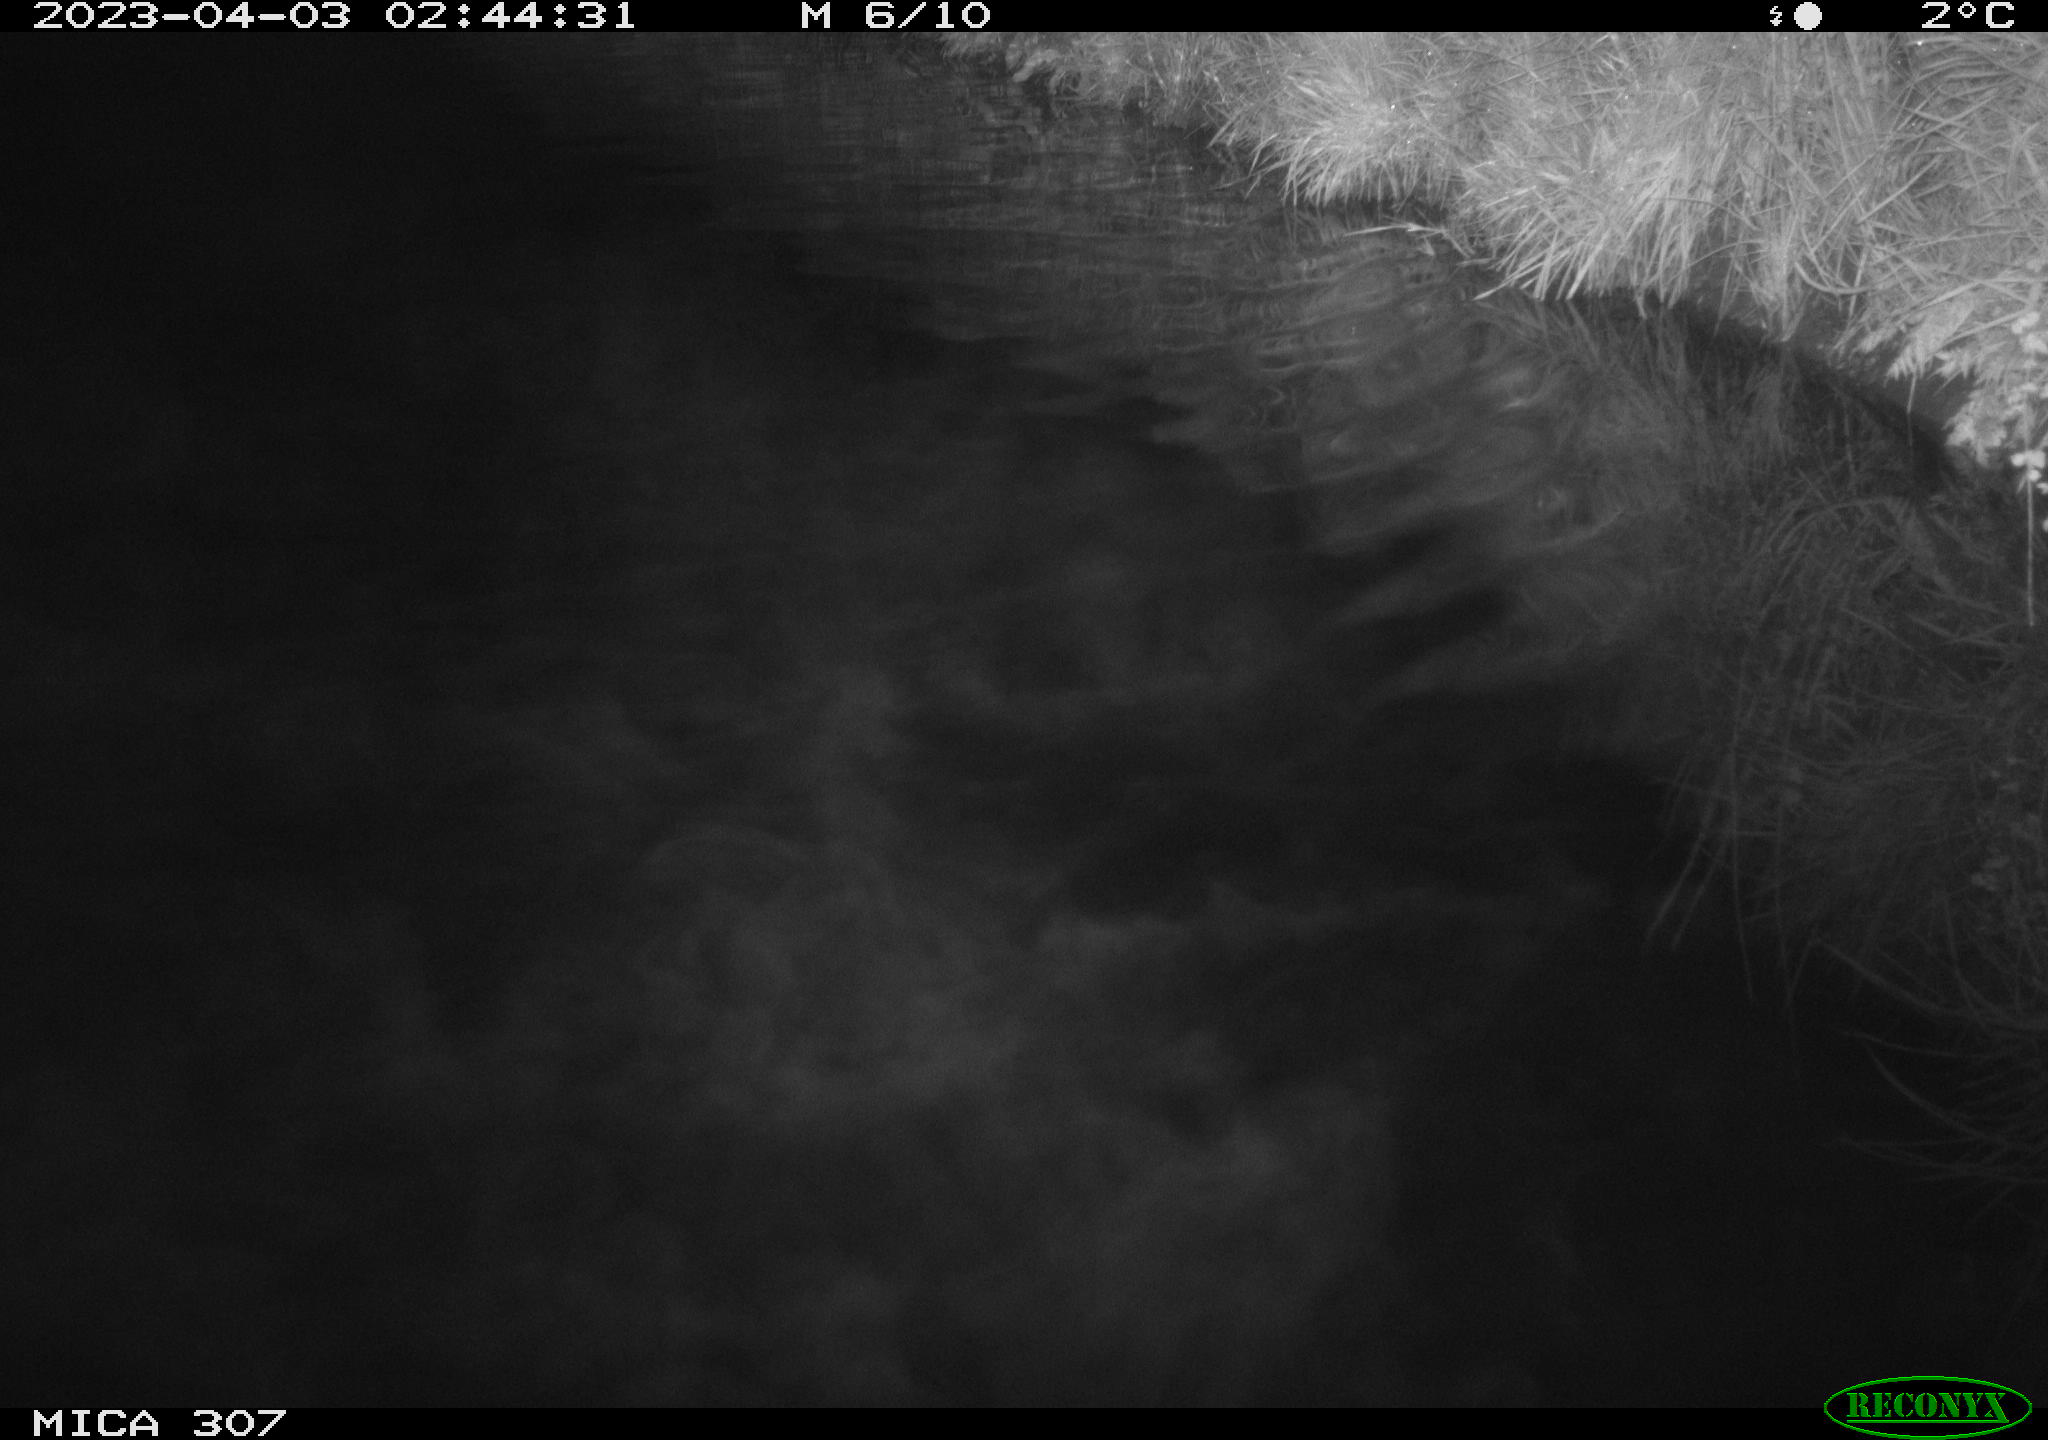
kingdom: Animalia
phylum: Chordata
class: Aves
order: Anseriformes
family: Anatidae
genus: Anas
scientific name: Anas
